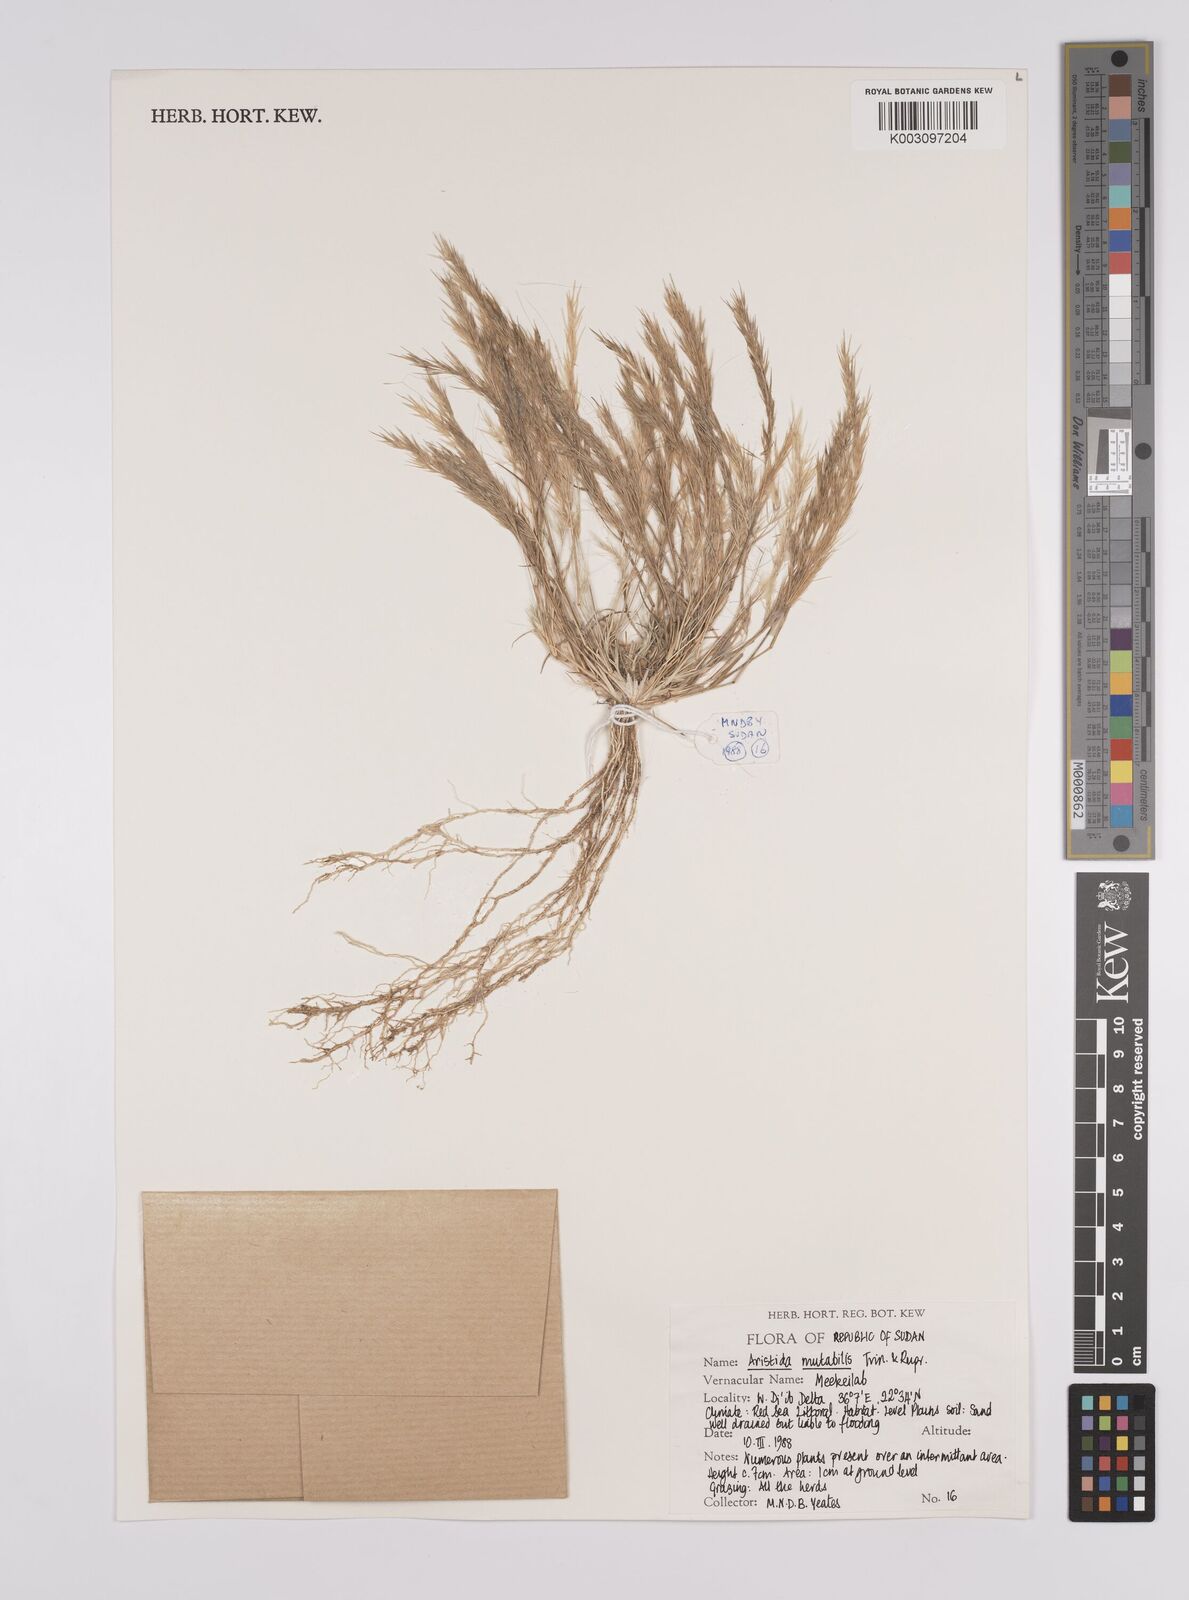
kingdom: Plantae
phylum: Tracheophyta
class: Liliopsida
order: Poales
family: Poaceae
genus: Aristida
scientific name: Aristida mutabilis
